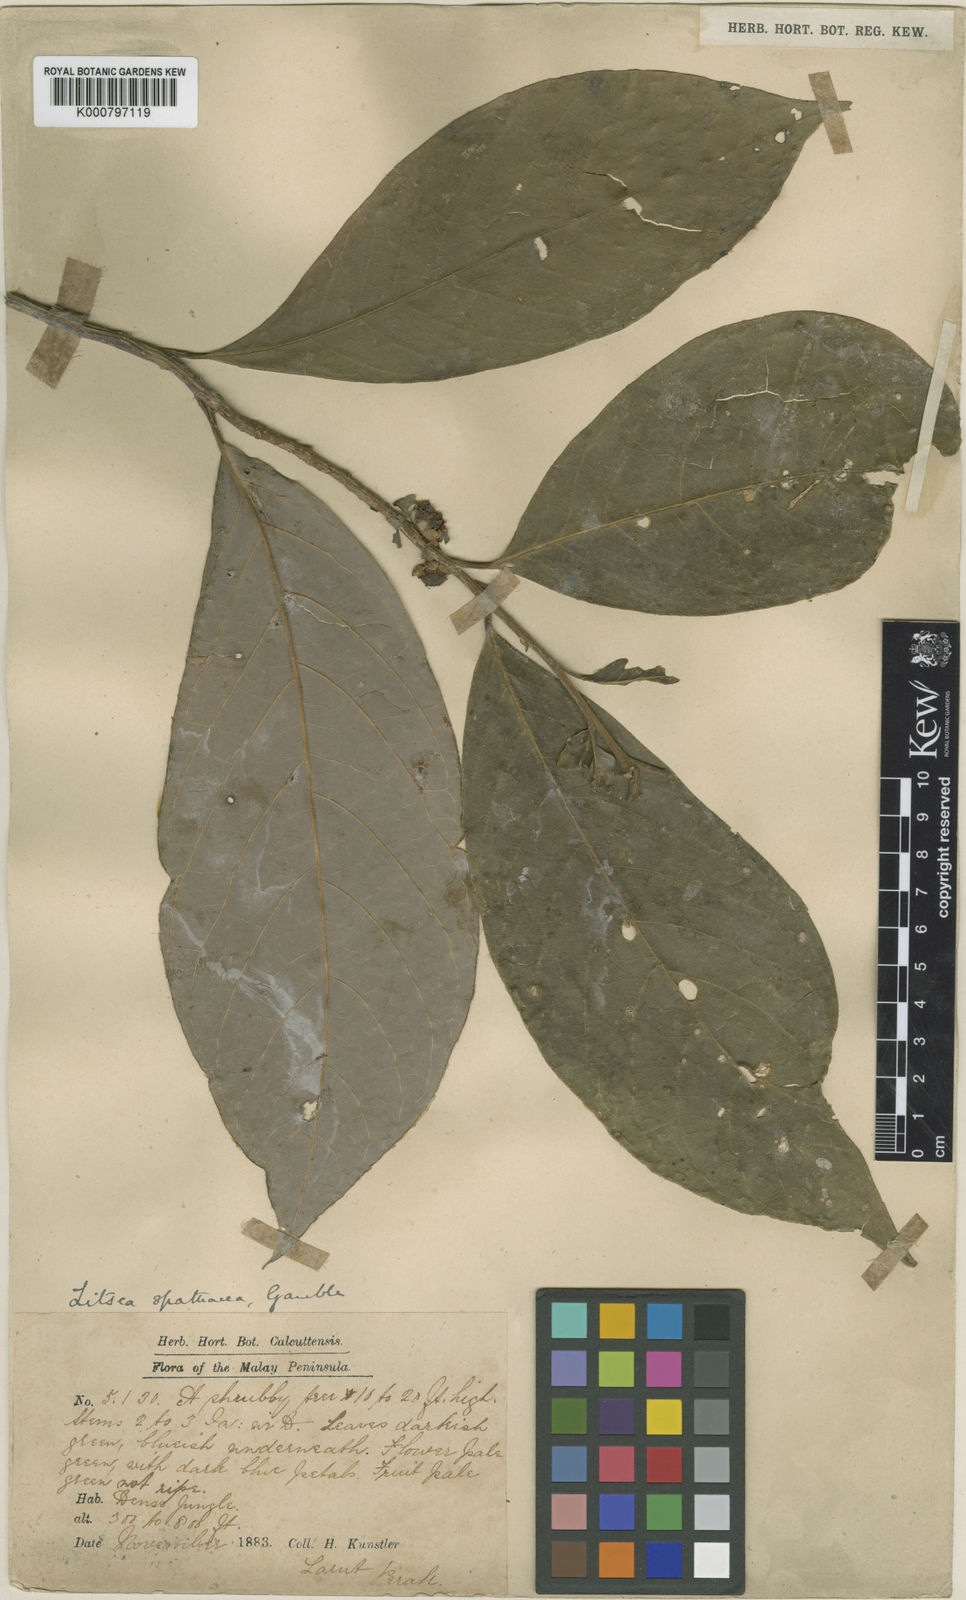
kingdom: Plantae
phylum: Tracheophyta
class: Magnoliopsida
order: Laurales
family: Lauraceae
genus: Litsea
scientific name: Litsea spathacea
